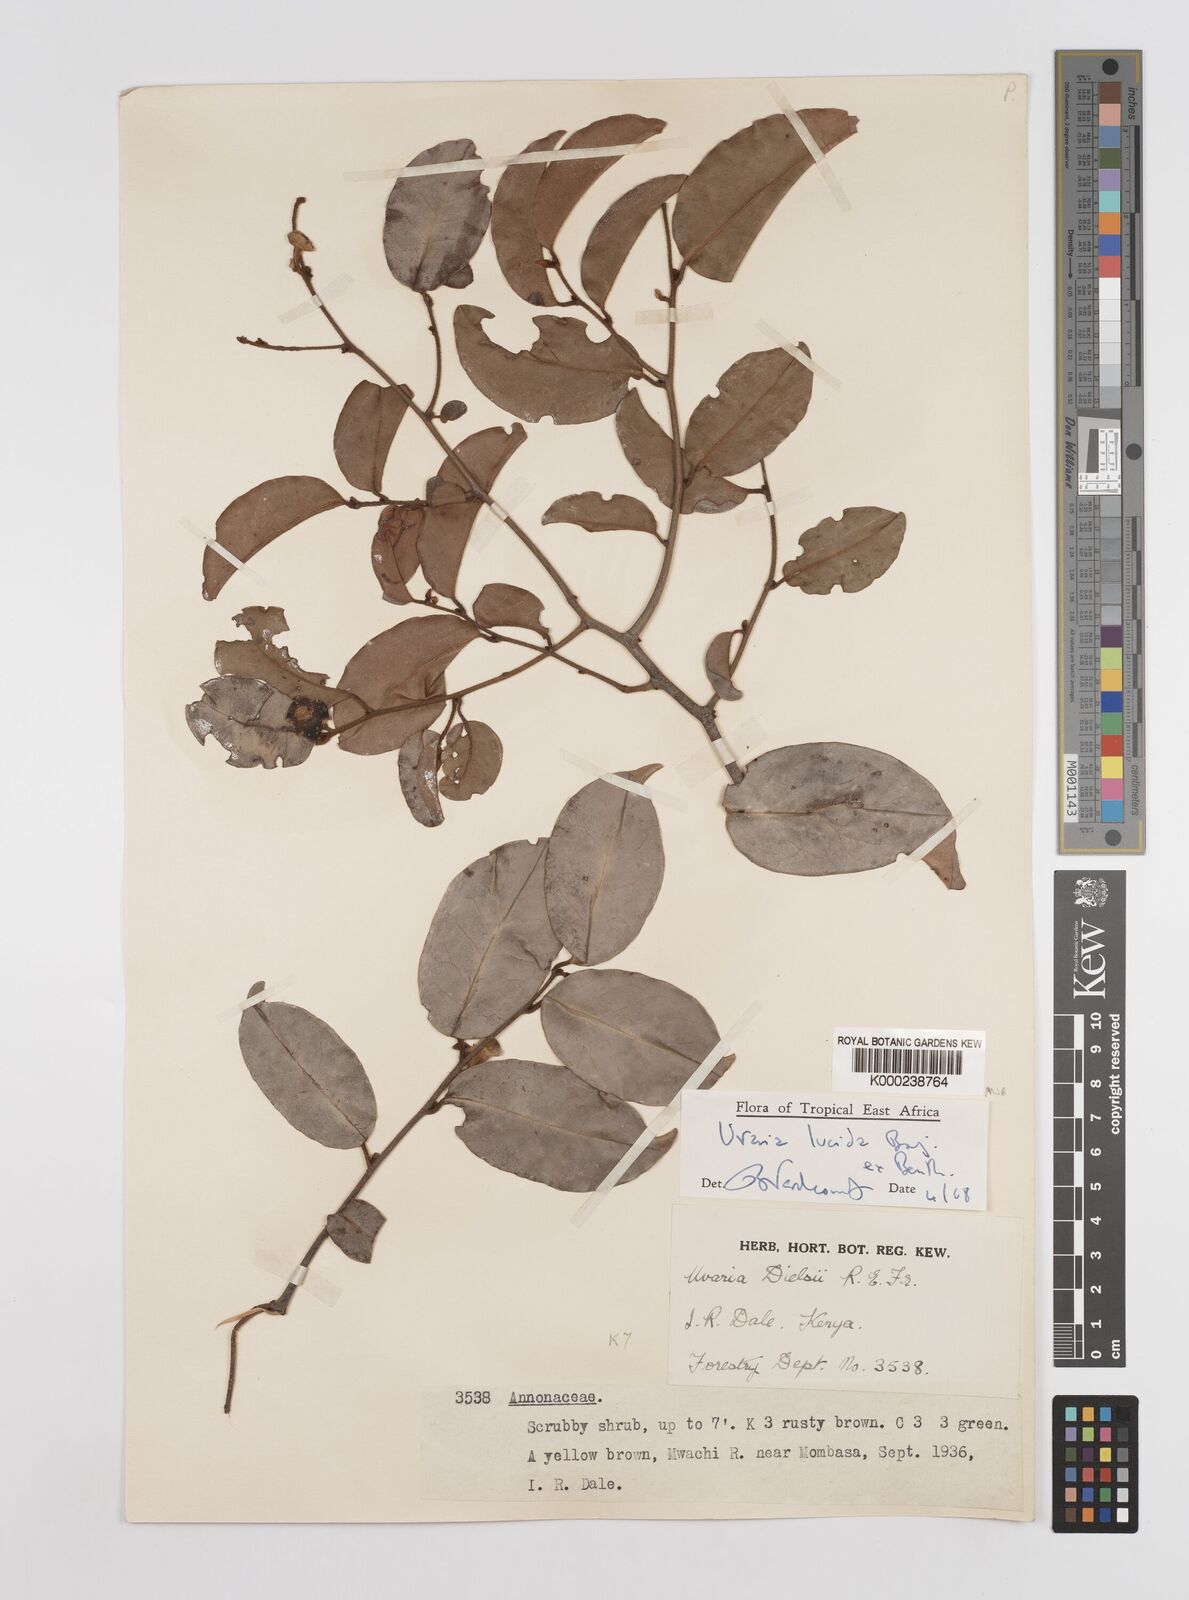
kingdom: Plantae
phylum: Tracheophyta
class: Magnoliopsida
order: Magnoliales
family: Annonaceae
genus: Uvaria
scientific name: Uvaria lucida
